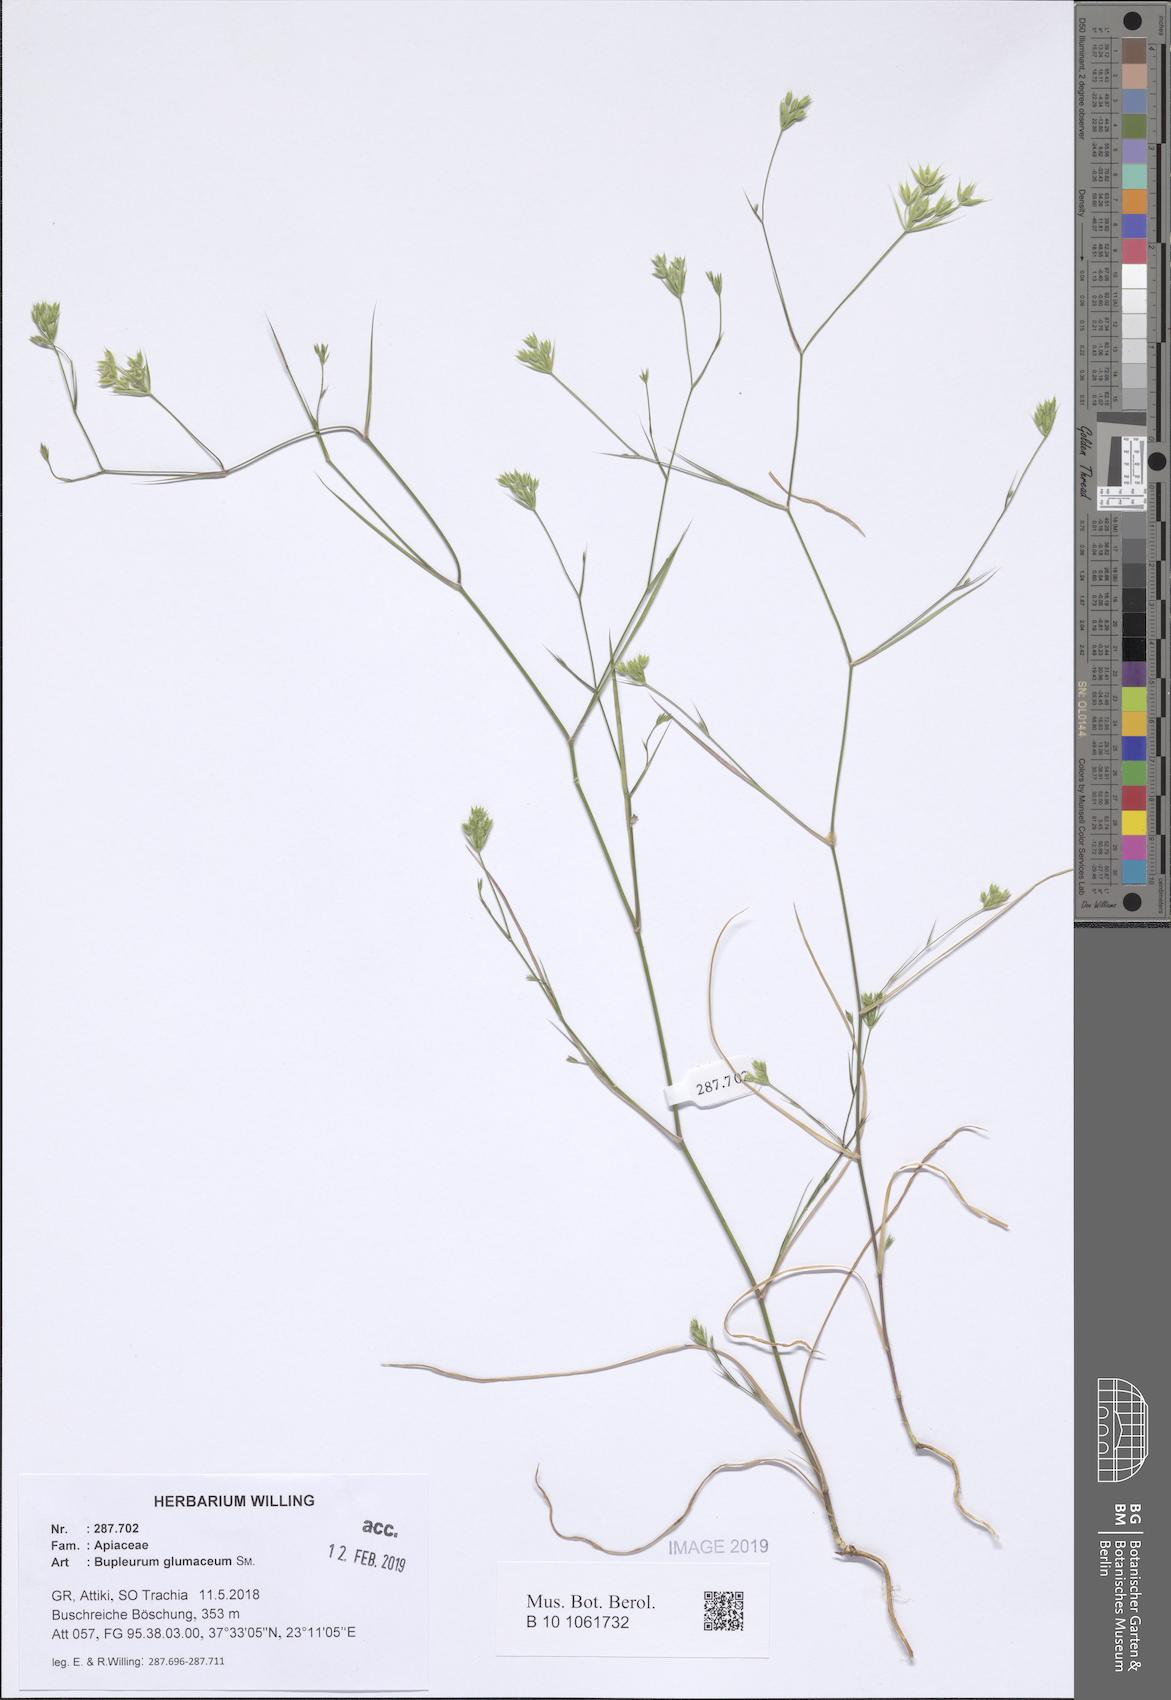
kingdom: Plantae
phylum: Tracheophyta
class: Magnoliopsida
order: Apiales
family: Apiaceae
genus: Bupleurum
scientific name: Bupleurum glumaceum
